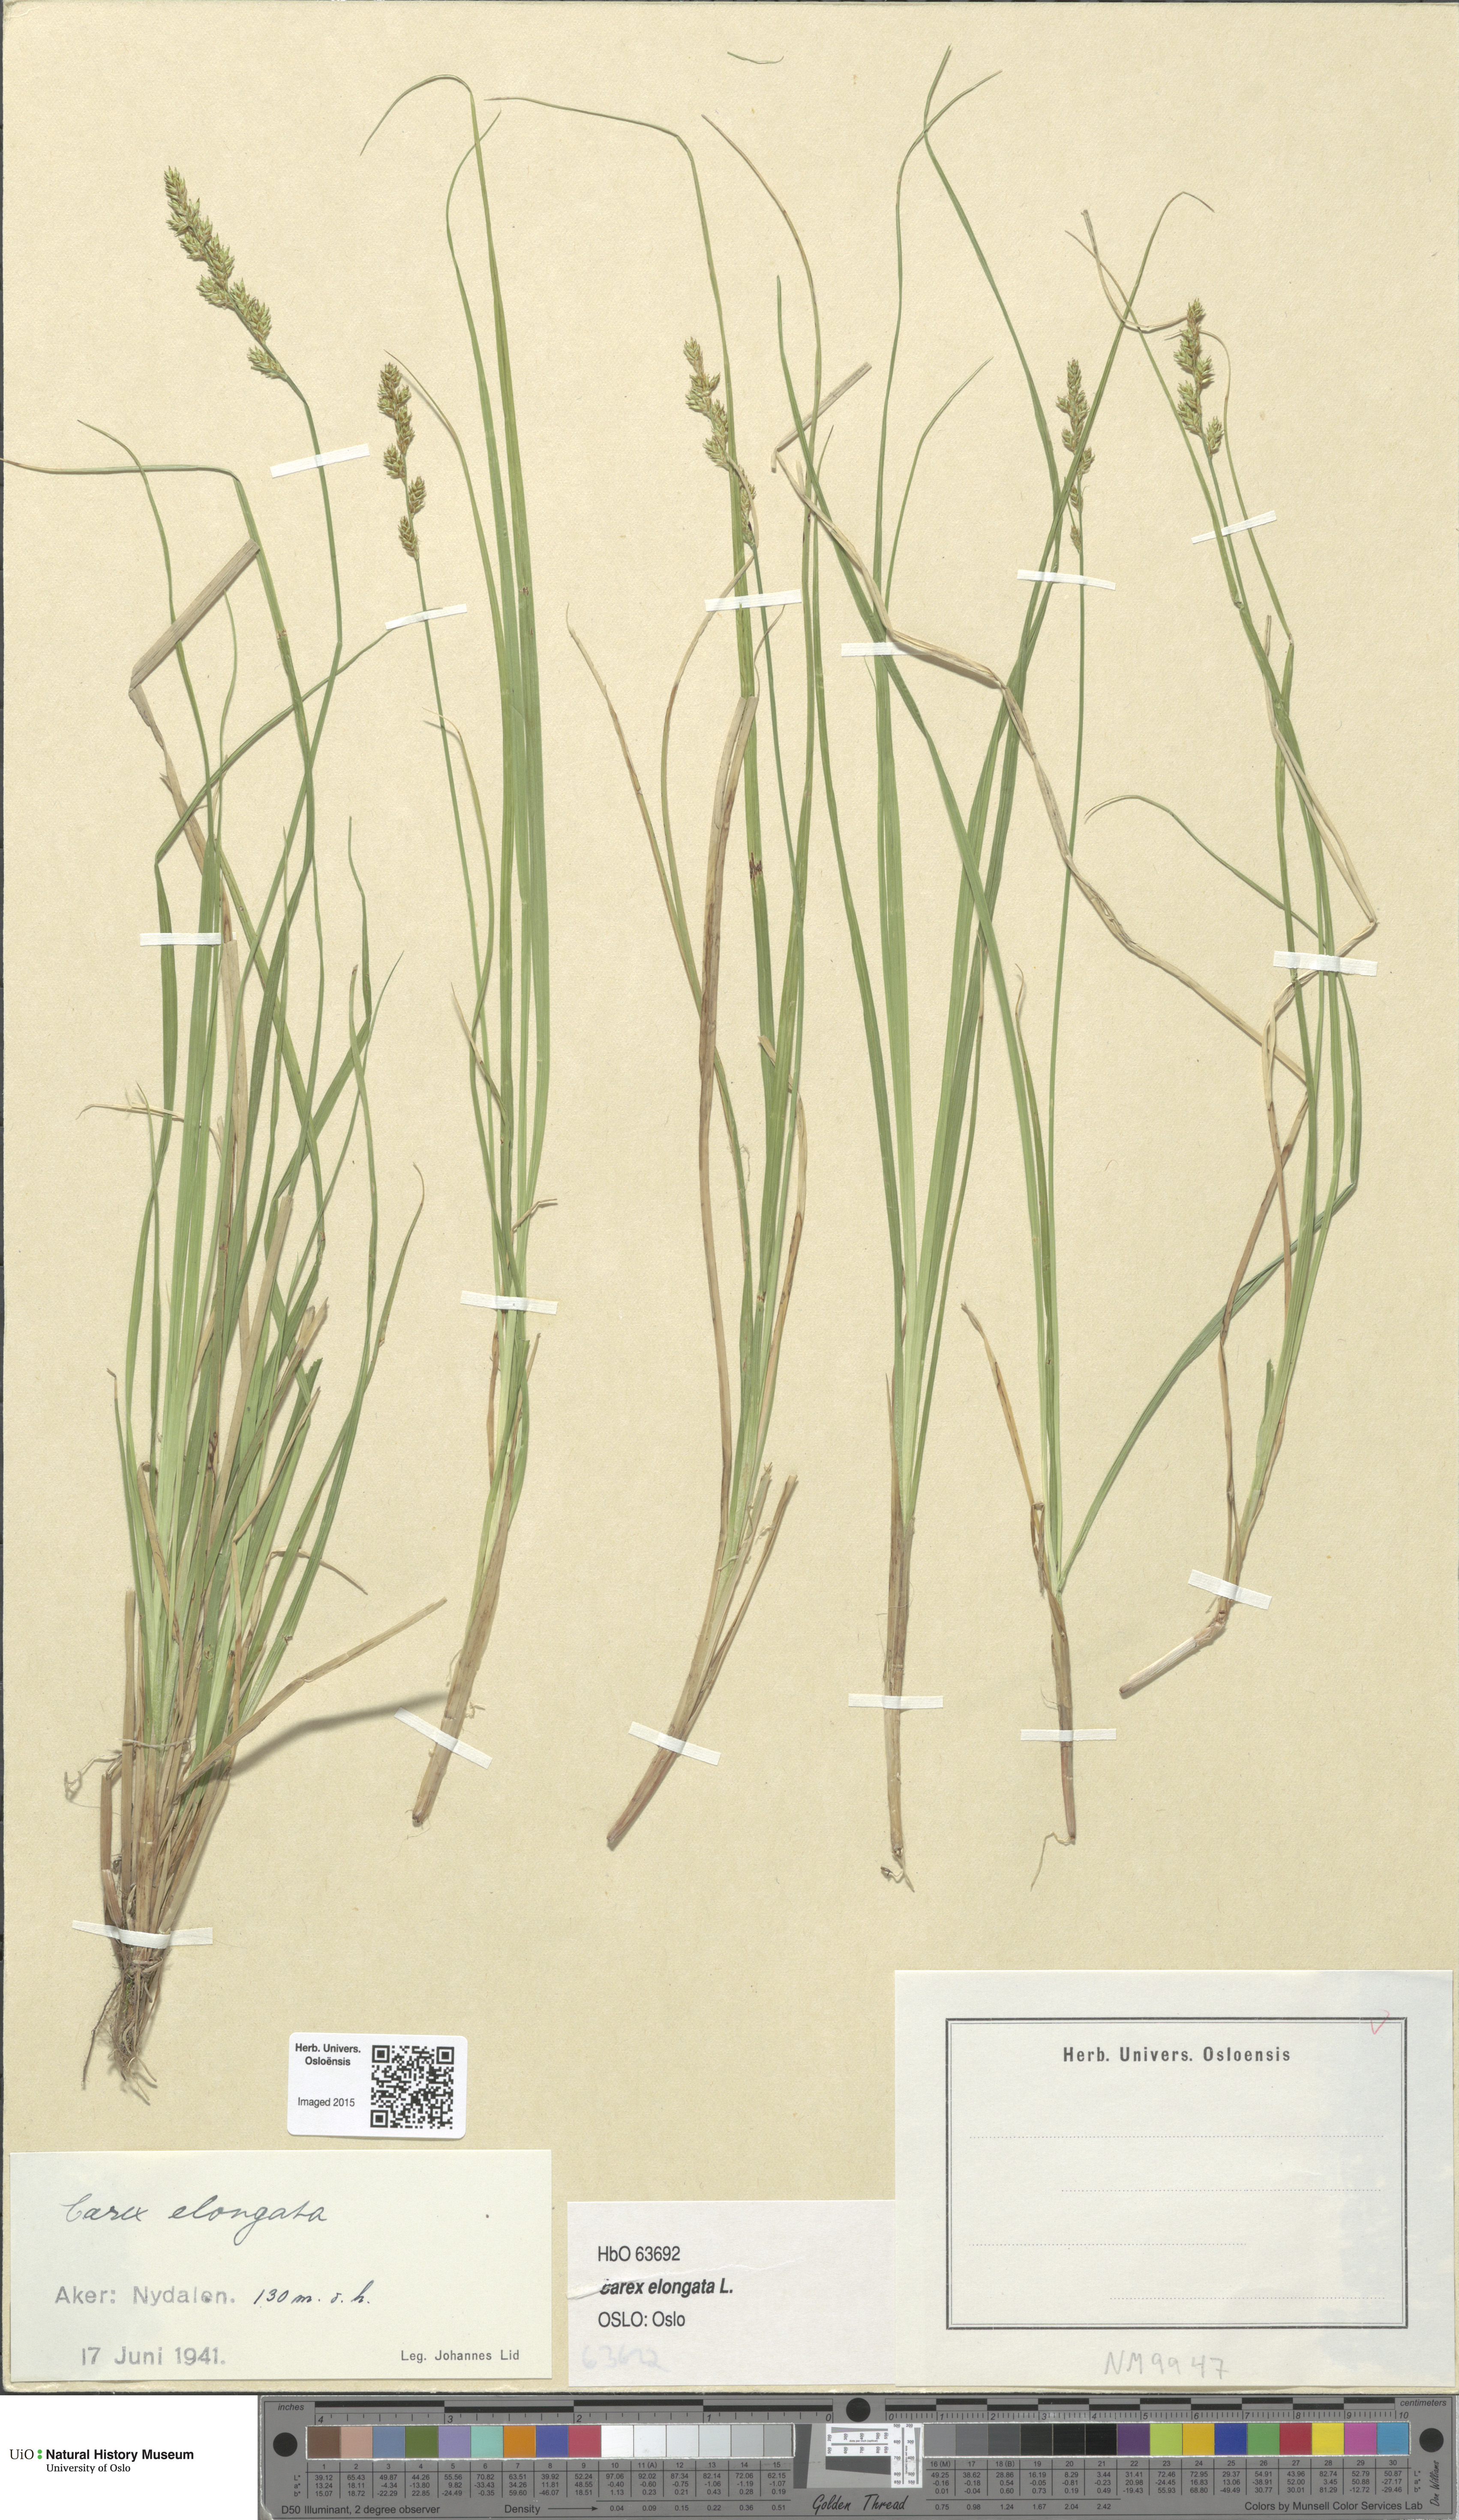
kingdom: Plantae
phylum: Tracheophyta
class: Liliopsida
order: Poales
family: Cyperaceae
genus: Carex
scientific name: Carex elongata
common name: Elongated sedge
